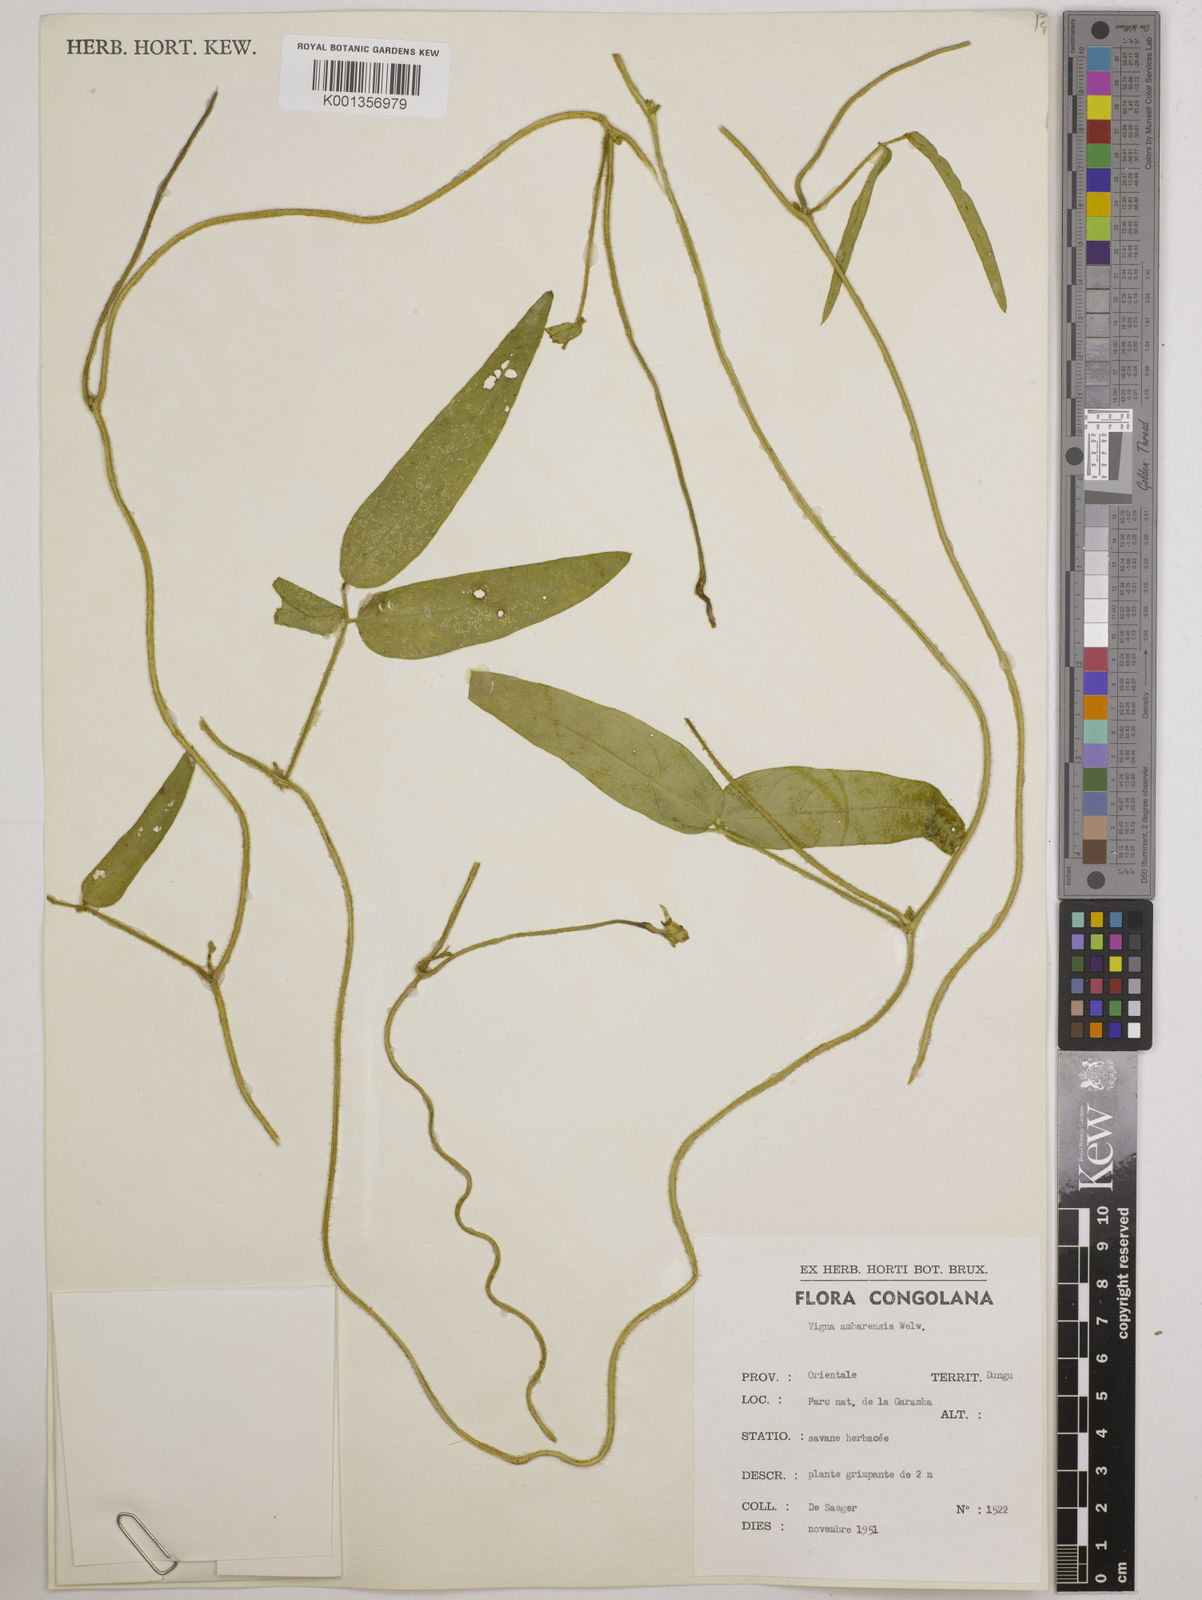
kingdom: Plantae
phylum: Tracheophyta
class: Magnoliopsida
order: Fabales
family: Fabaceae
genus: Vigna
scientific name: Vigna ambacensis
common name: Tsarkiyan zomo
